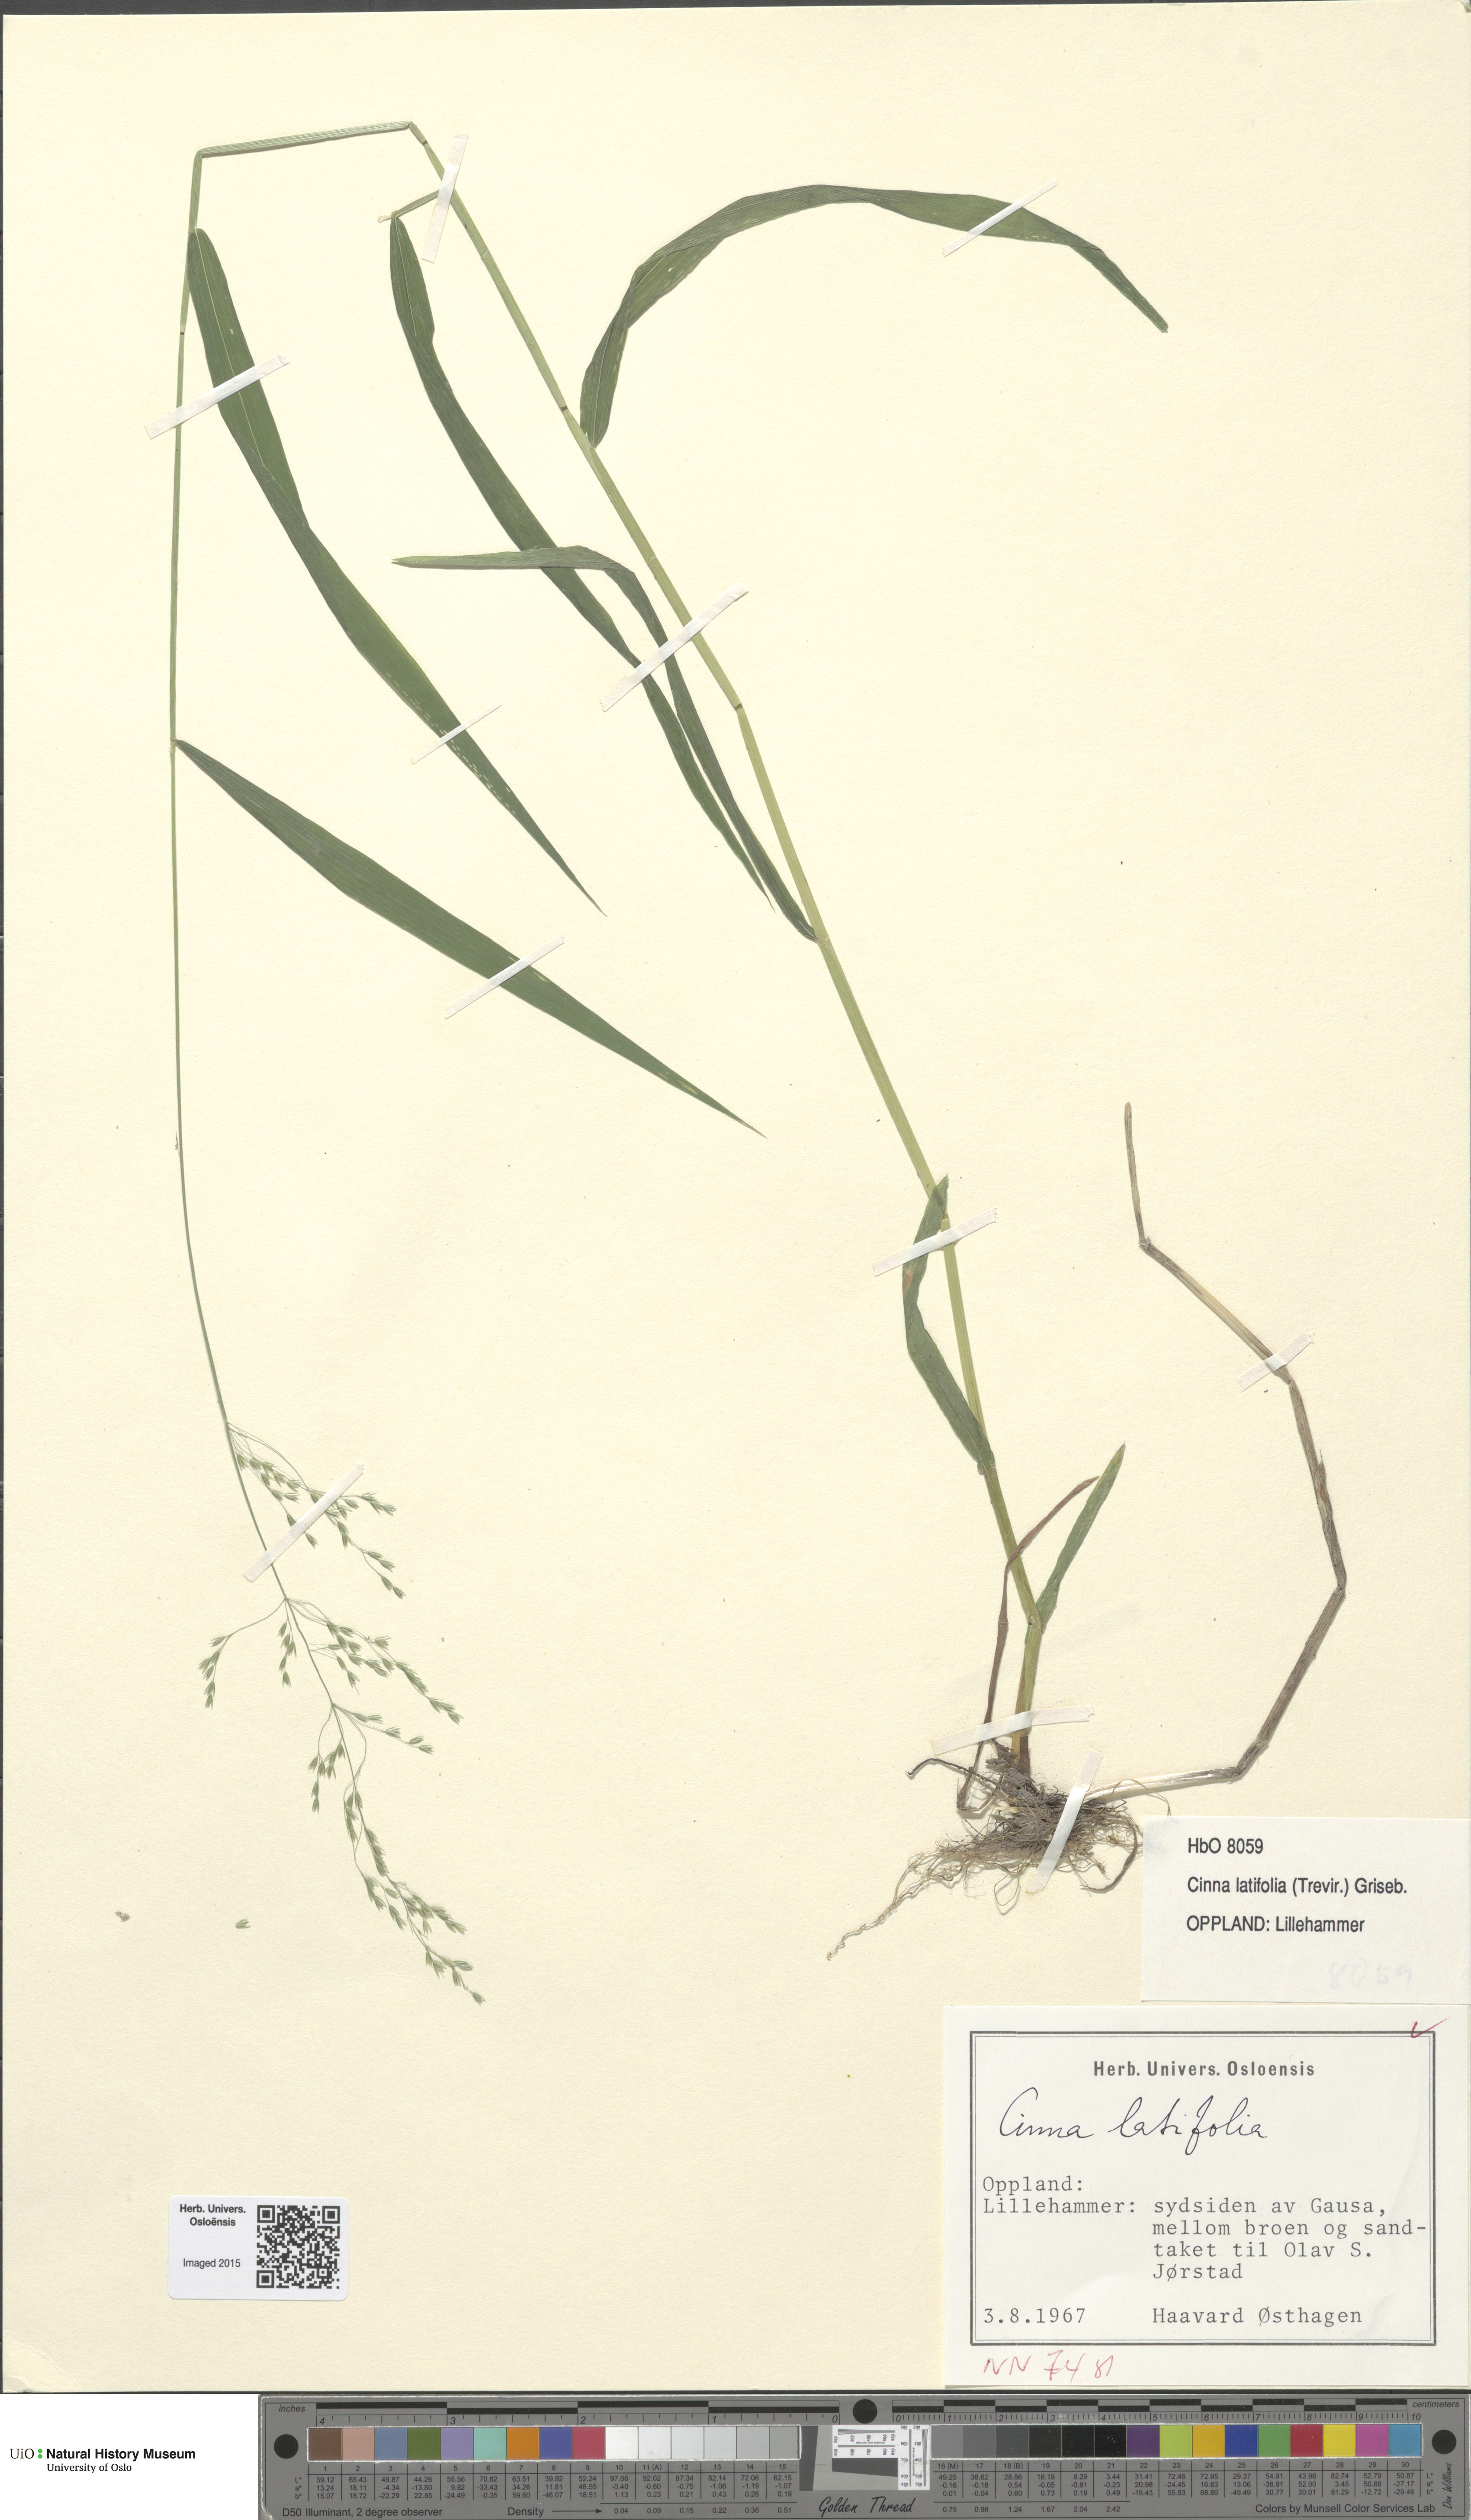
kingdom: Plantae
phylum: Tracheophyta
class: Liliopsida
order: Poales
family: Poaceae
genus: Cinna
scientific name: Cinna latifolia
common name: Drooping woodreed
